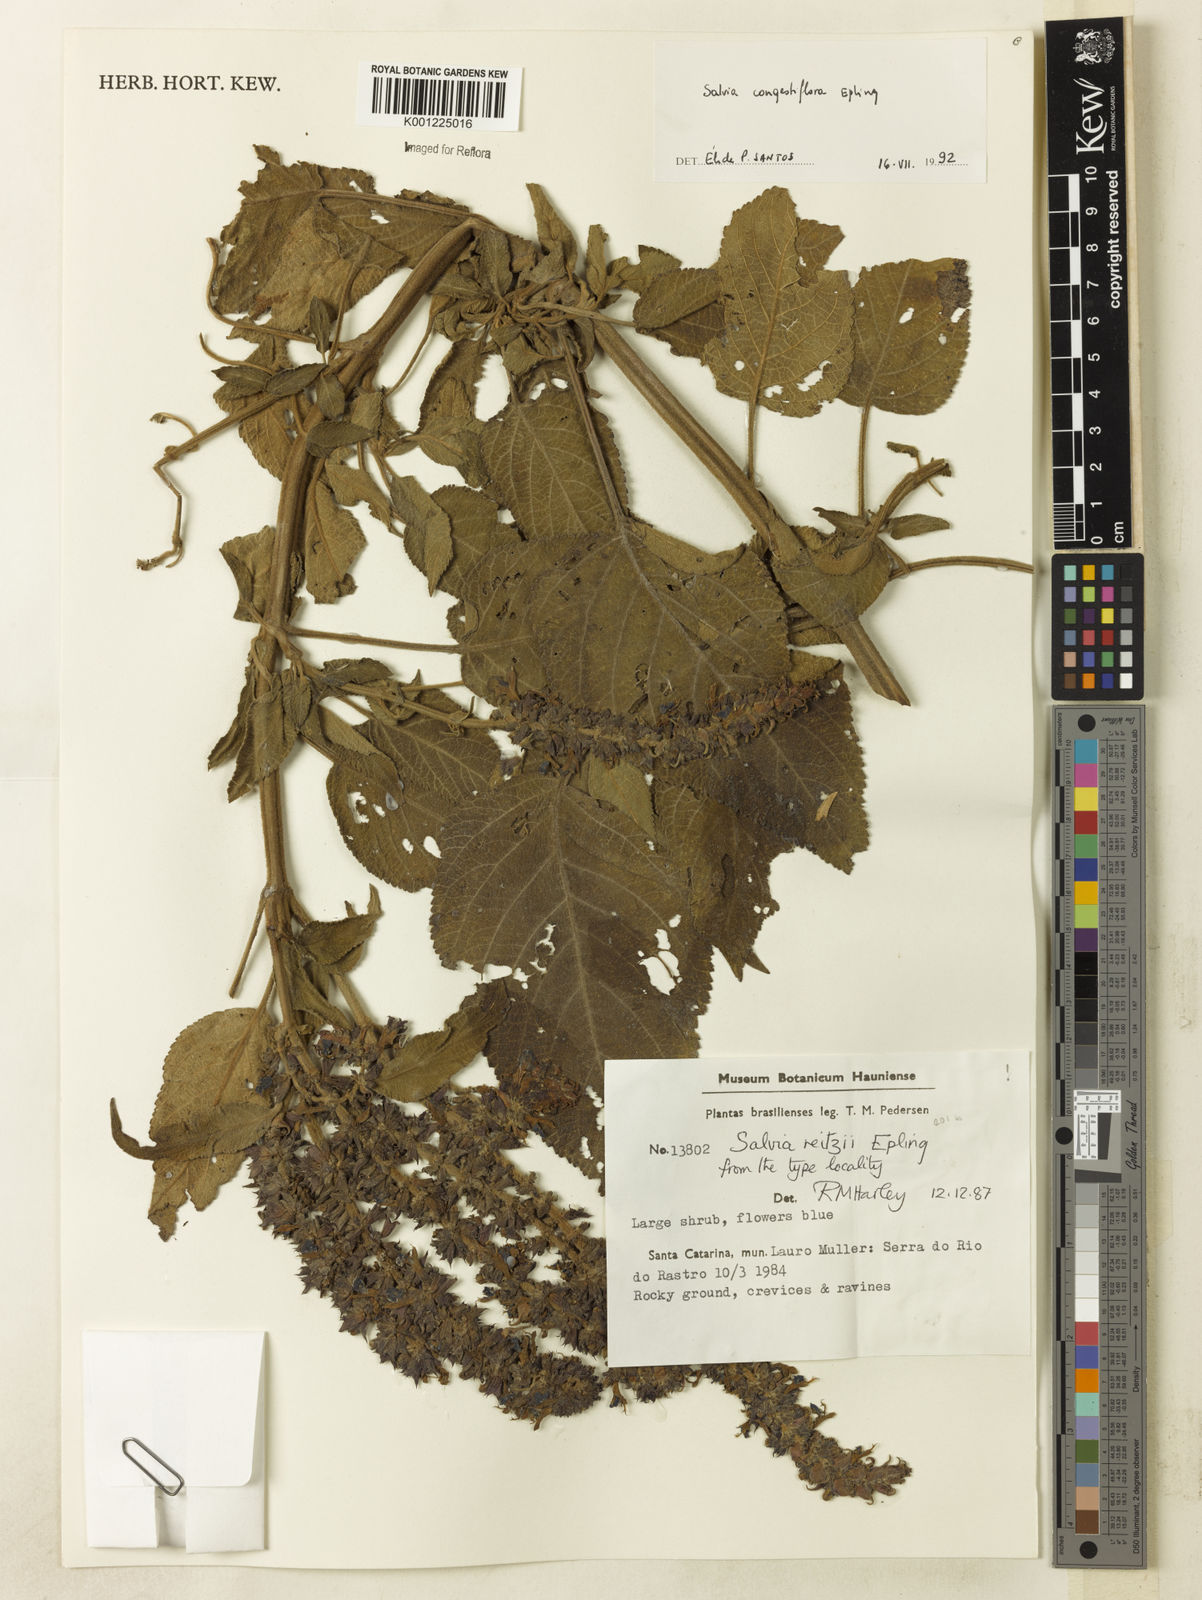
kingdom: Plantae
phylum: Tracheophyta
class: Magnoliopsida
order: Lamiales
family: Lamiaceae
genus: Salvia
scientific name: Salvia congestiflora
